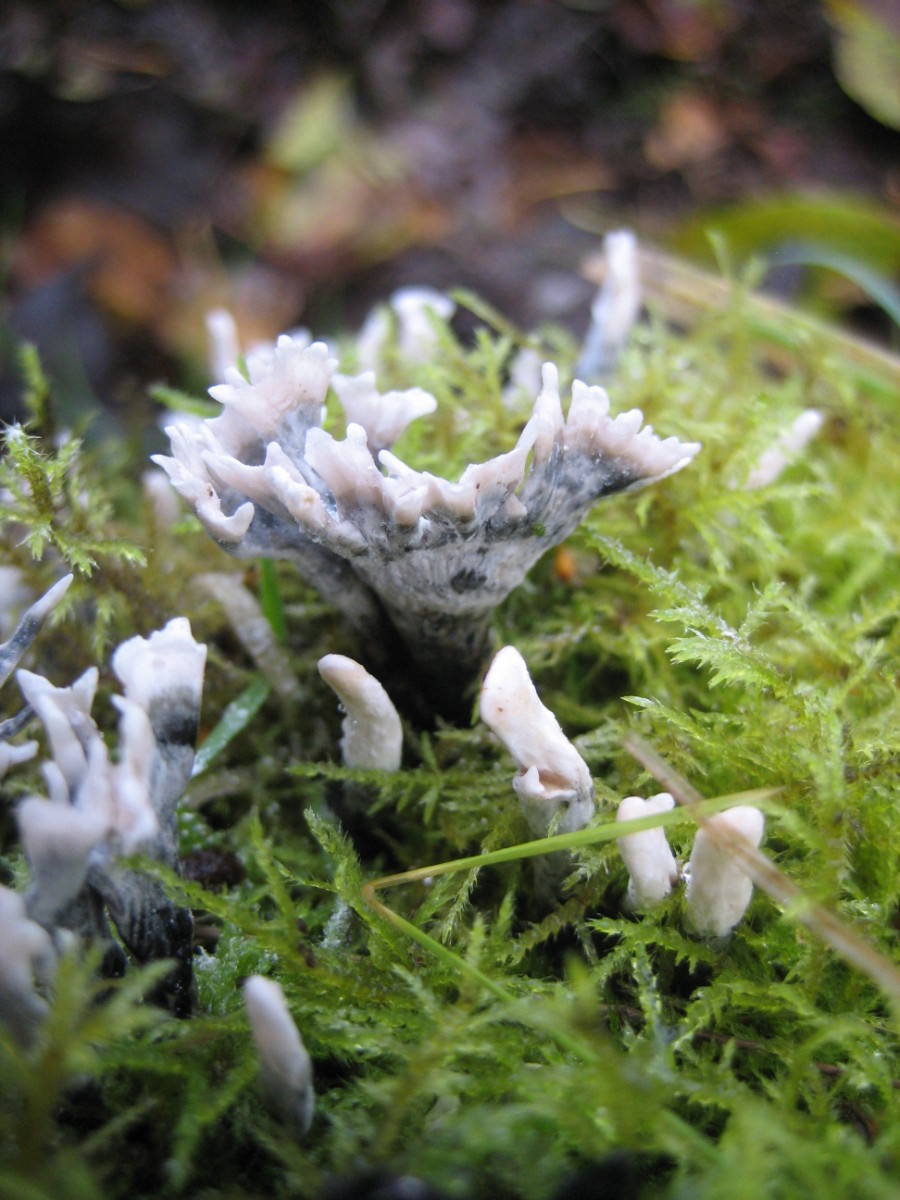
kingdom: Fungi
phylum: Ascomycota
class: Sordariomycetes
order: Xylariales
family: Xylariaceae
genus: Xylaria
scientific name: Xylaria hypoxylon
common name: grenet stødsvamp
